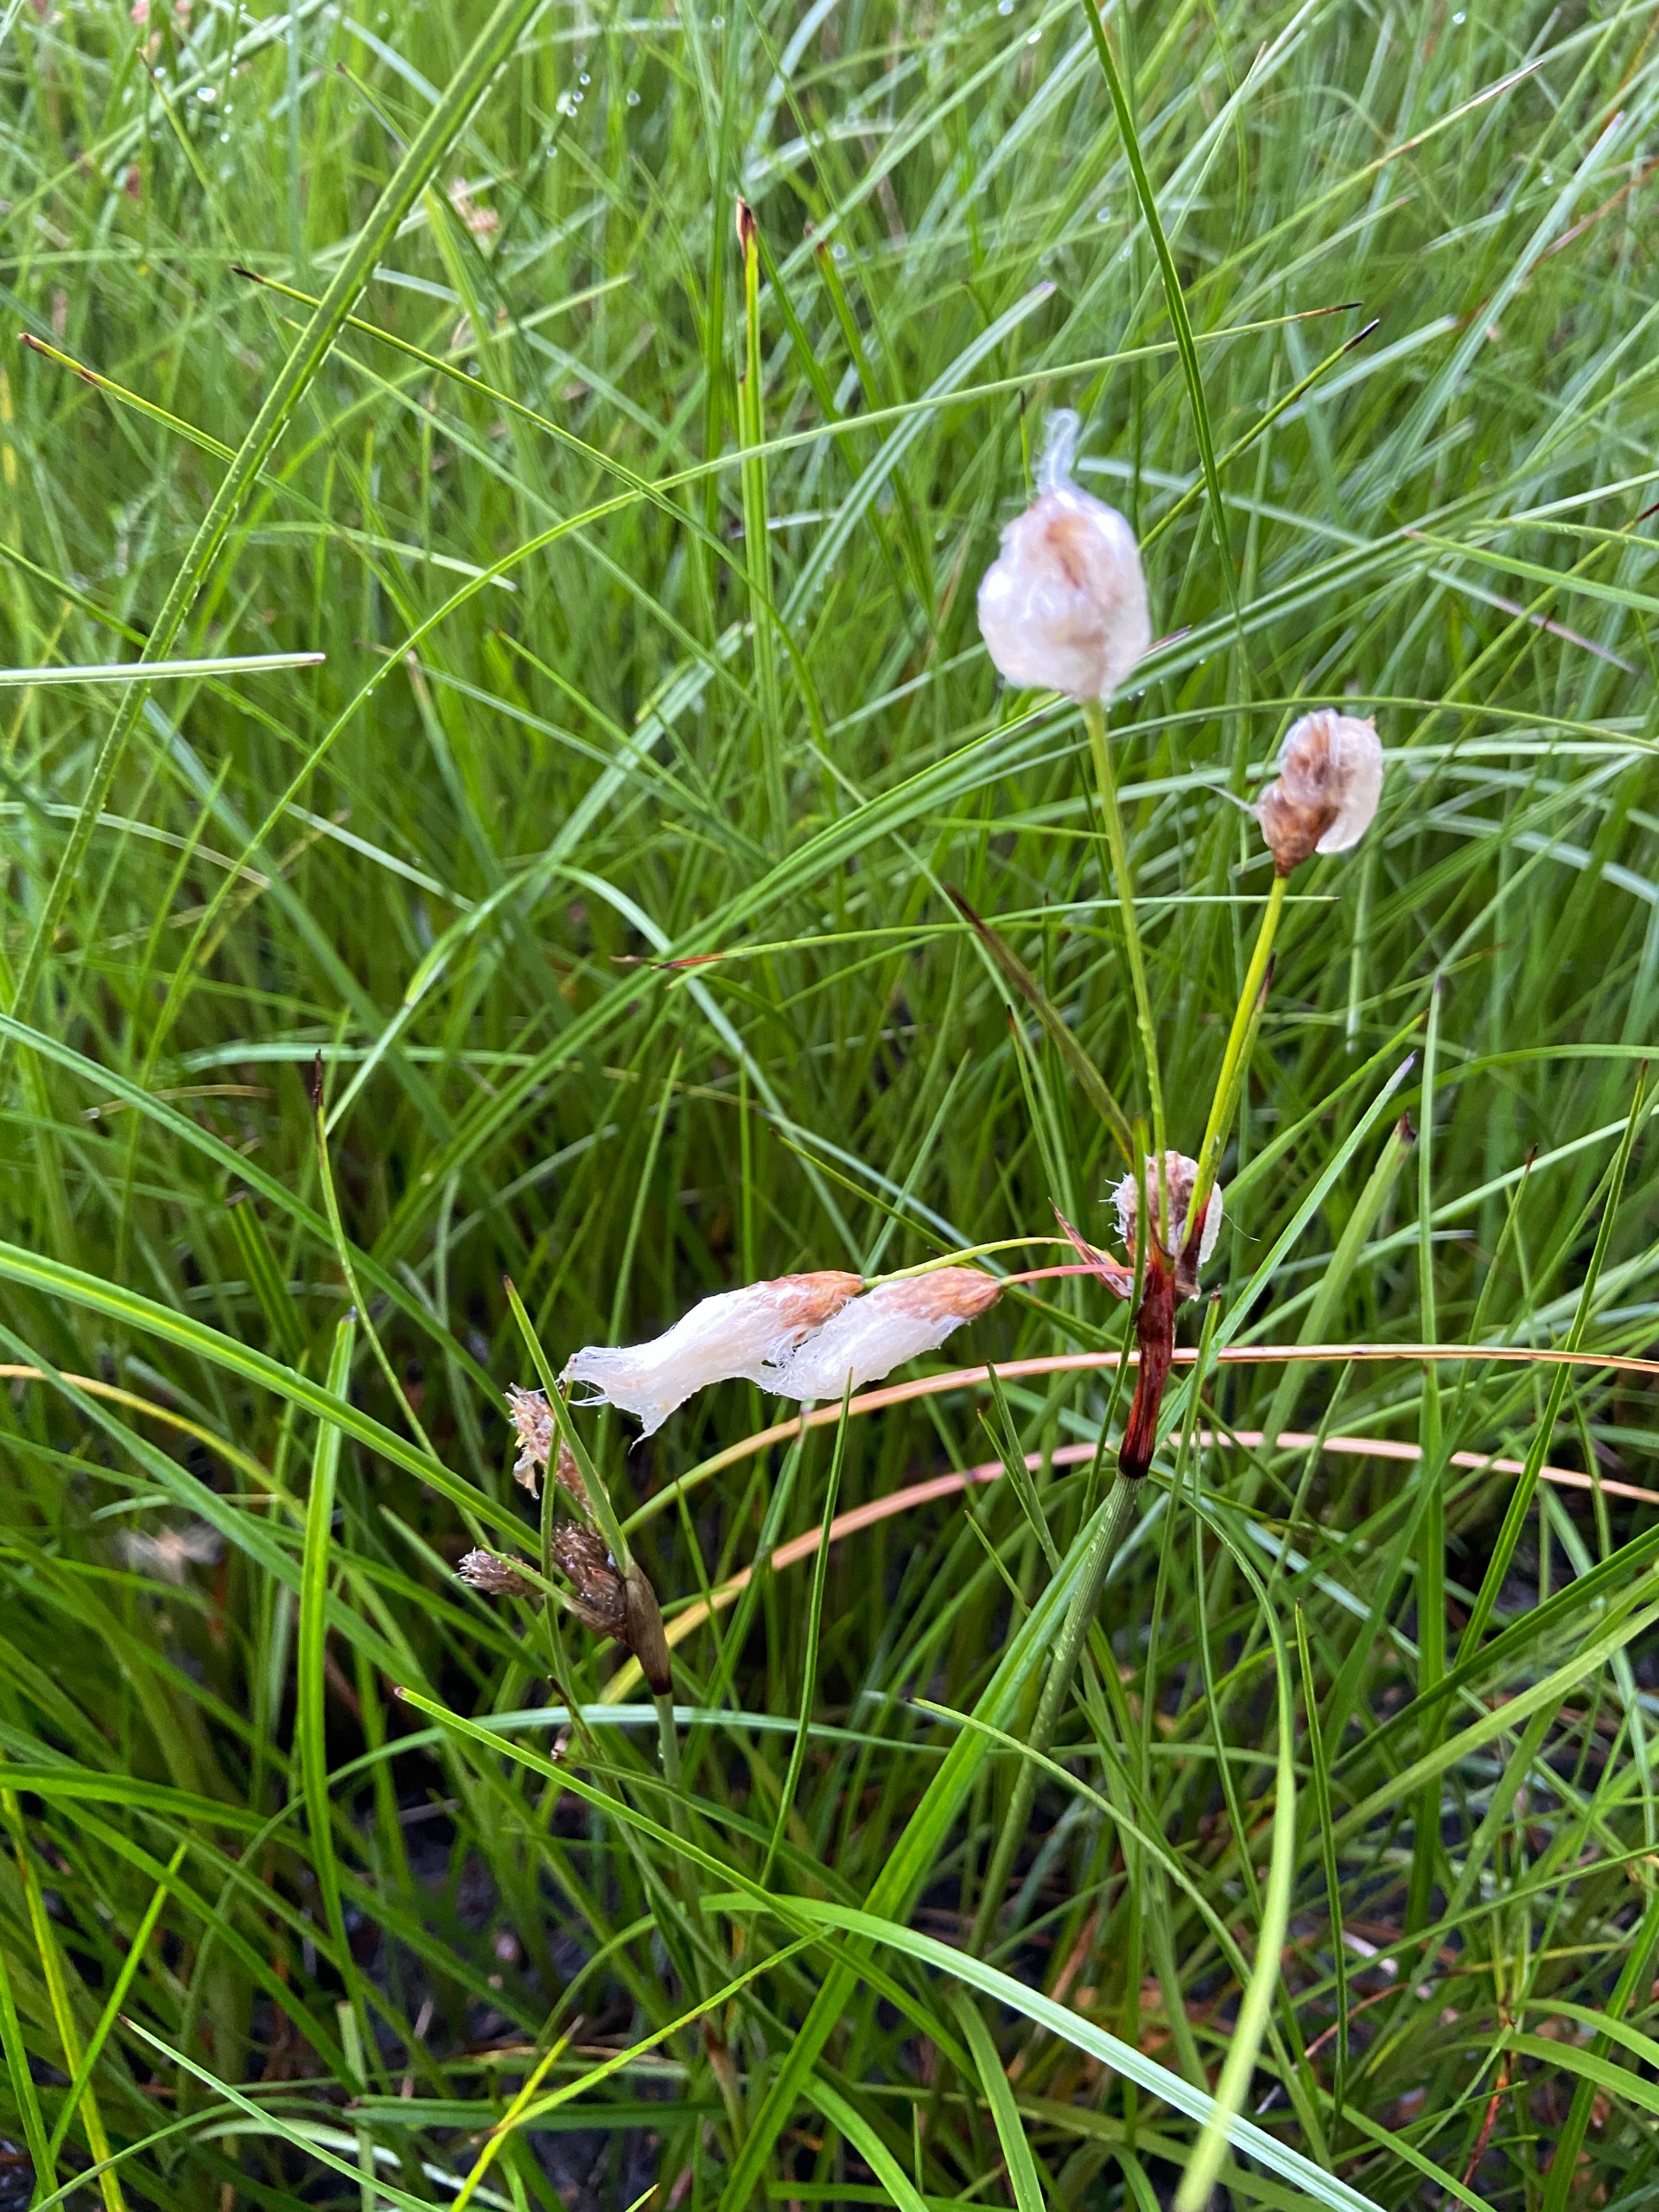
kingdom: Plantae
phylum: Tracheophyta
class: Liliopsida
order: Poales
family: Cyperaceae
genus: Eriophorum
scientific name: Eriophorum angustifolium
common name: Smalbladet kæruld
